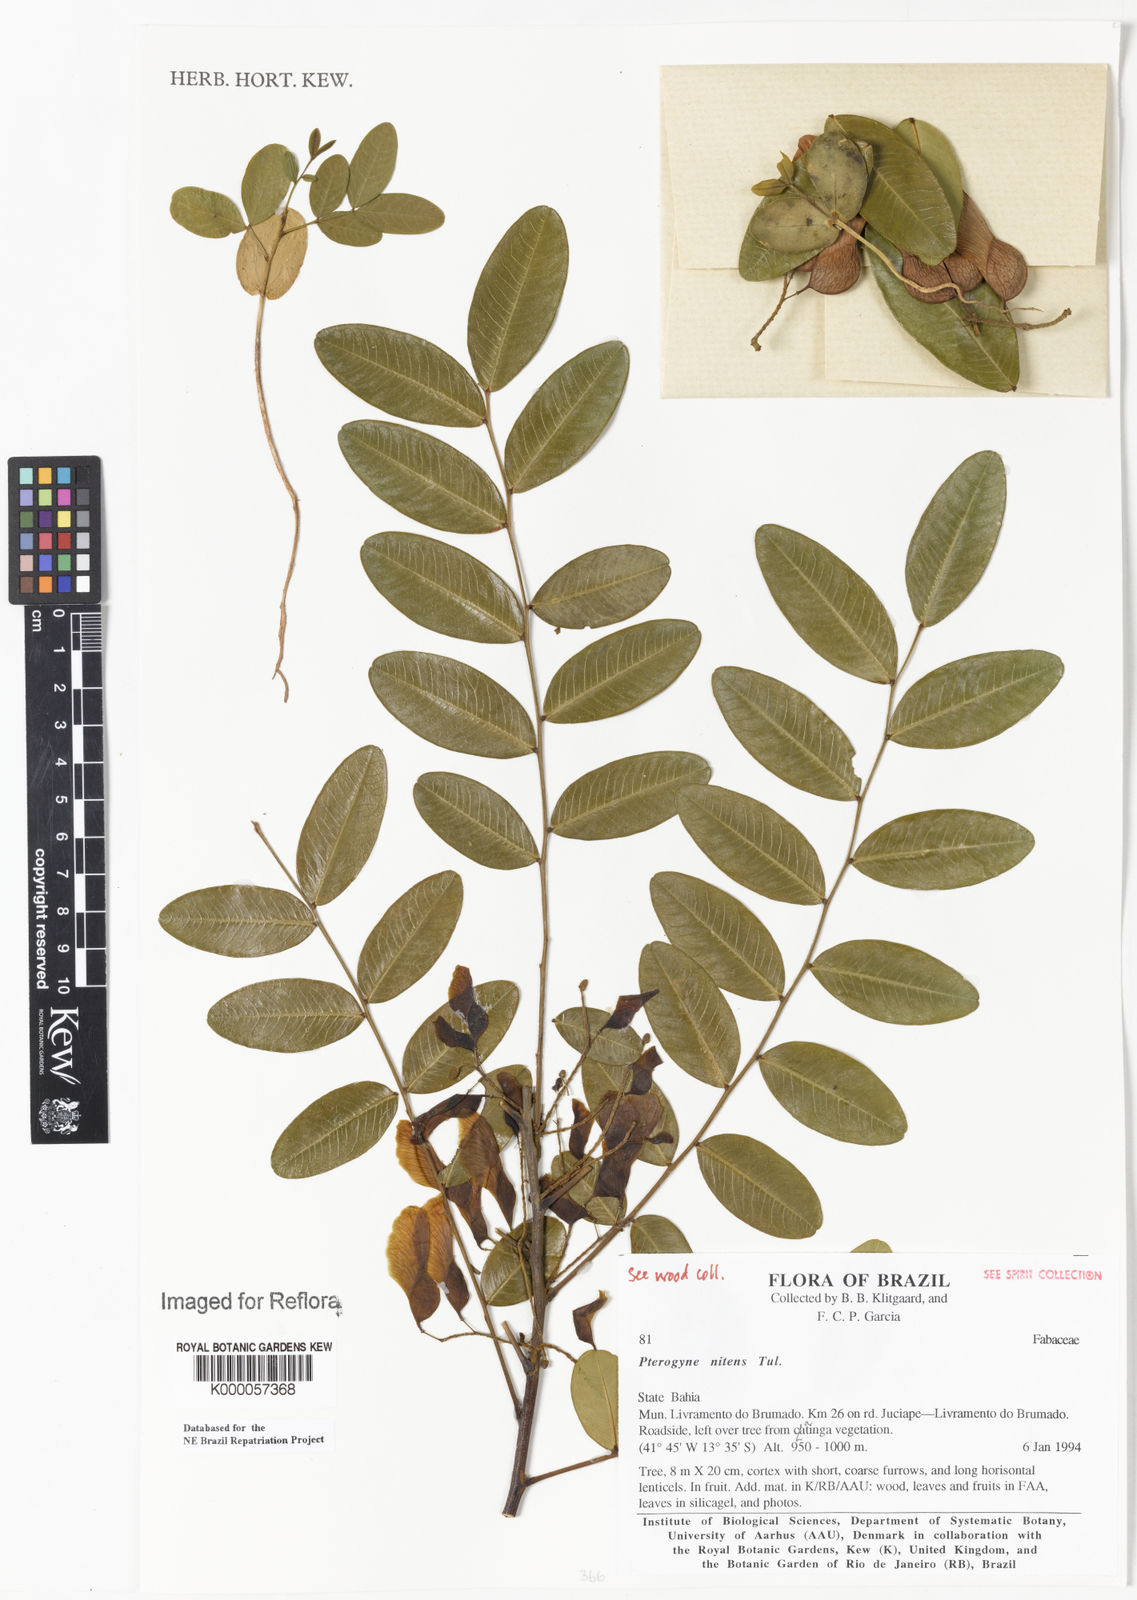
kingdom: Plantae
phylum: Tracheophyta
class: Magnoliopsida
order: Fabales
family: Fabaceae
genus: Pterogyne
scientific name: Pterogyne nitens
